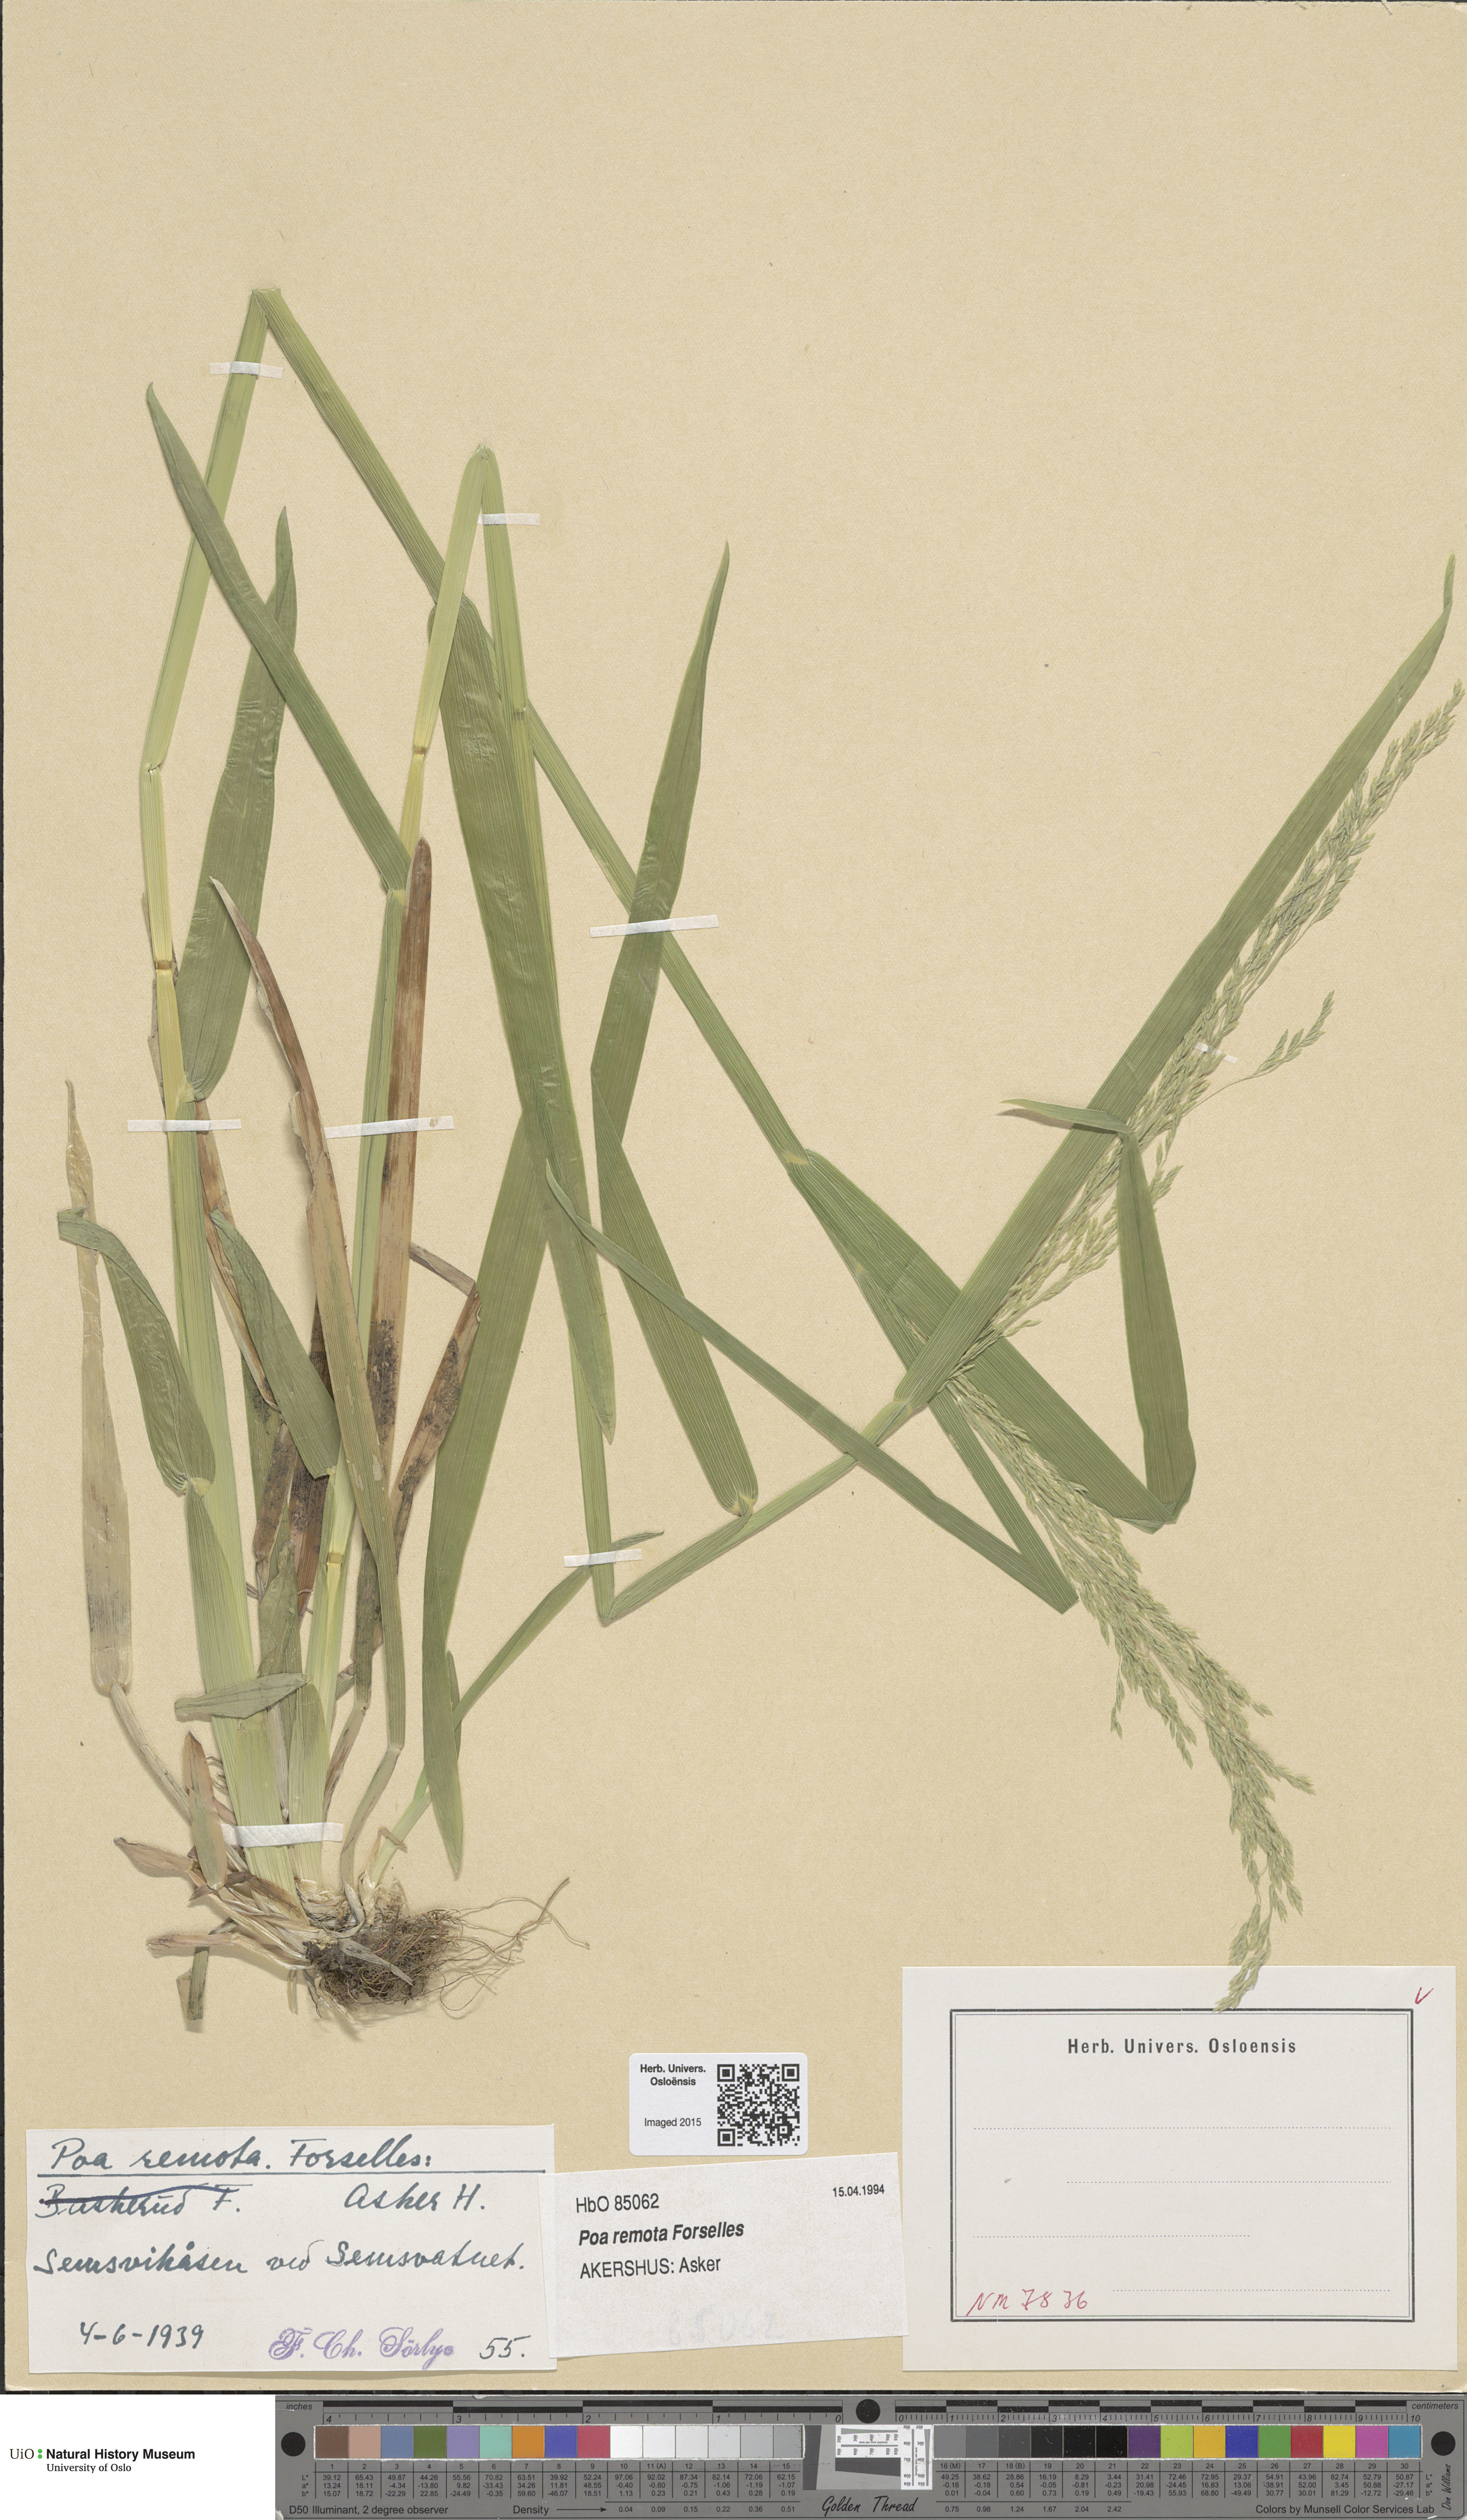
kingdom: Plantae
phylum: Tracheophyta
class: Liliopsida
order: Poales
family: Poaceae
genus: Poa
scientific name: Poa remota
